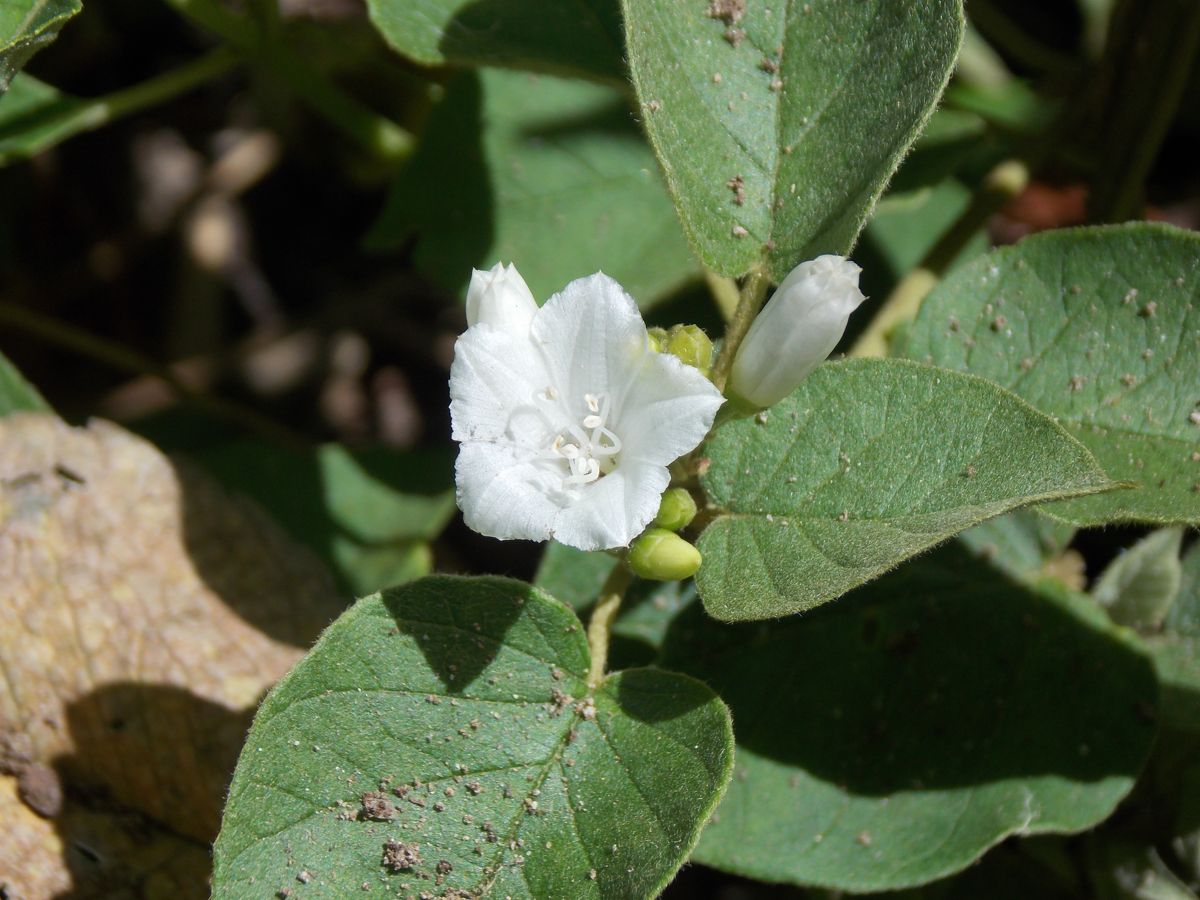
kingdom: Plantae
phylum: Tracheophyta
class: Magnoliopsida
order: Solanales
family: Convolvulaceae
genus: Jacquemontia
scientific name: Jacquemontia nodiflora
